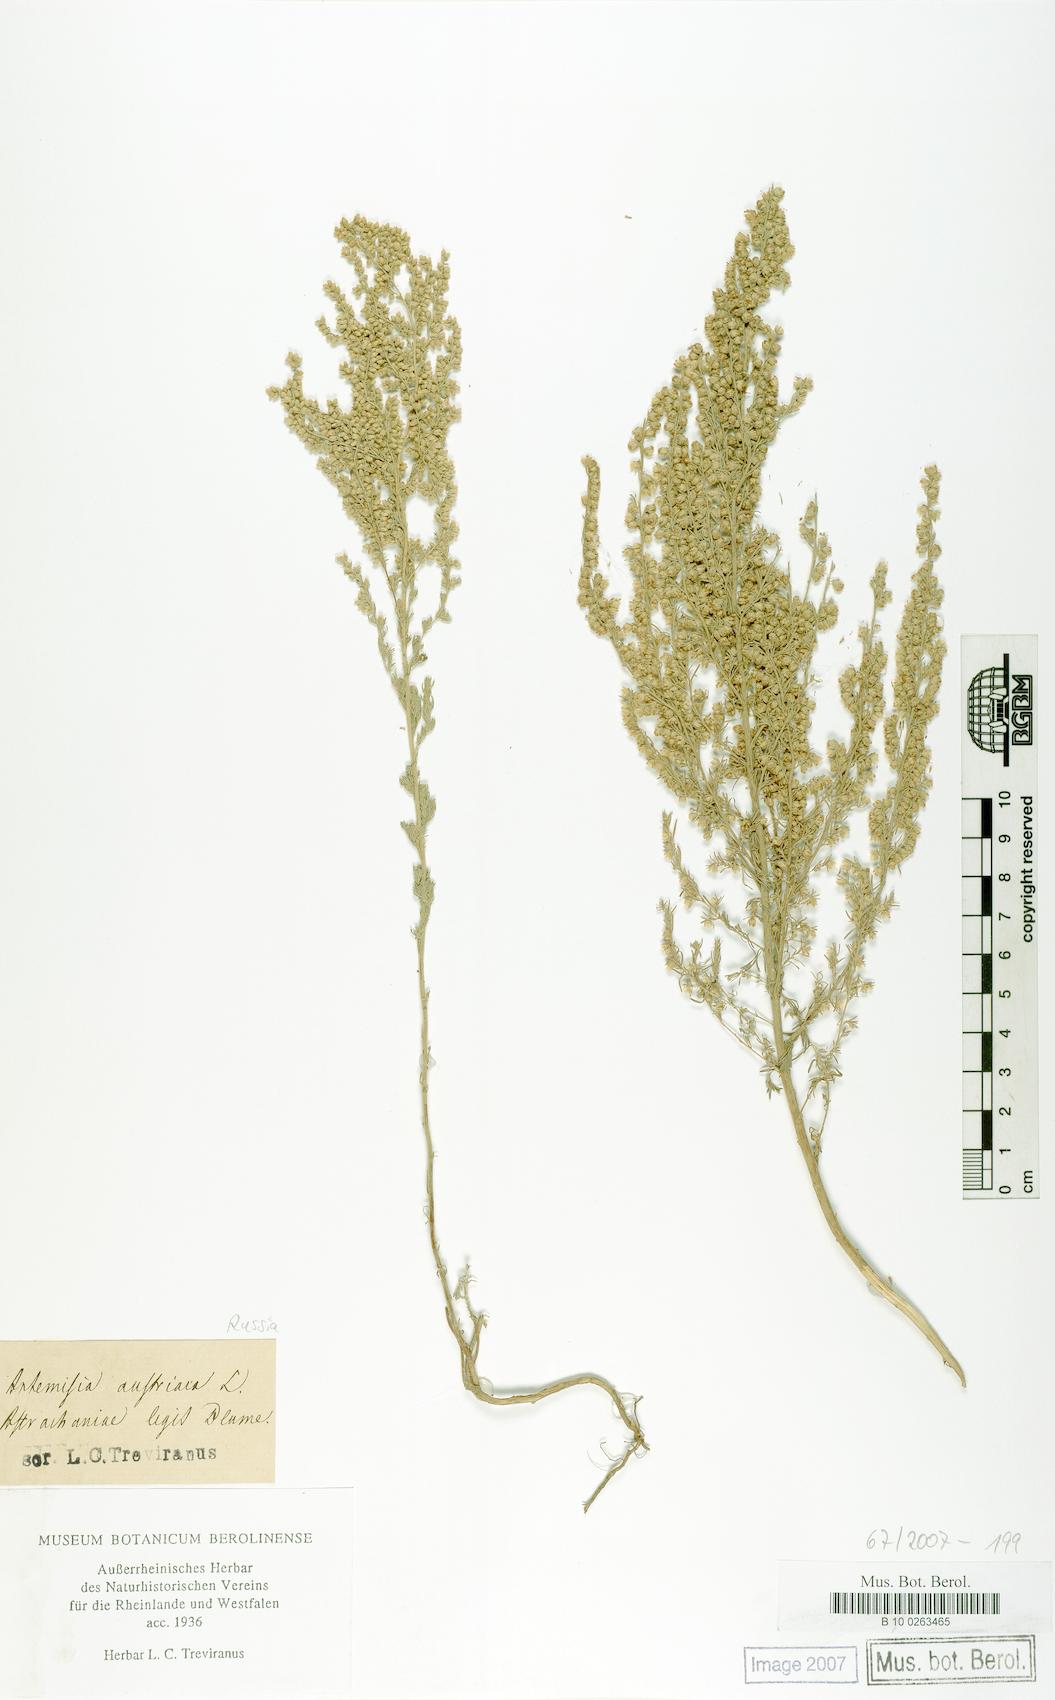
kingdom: Plantae
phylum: Tracheophyta
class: Magnoliopsida
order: Asterales
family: Asteraceae
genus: Artemisia
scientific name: Artemisia austriaca
